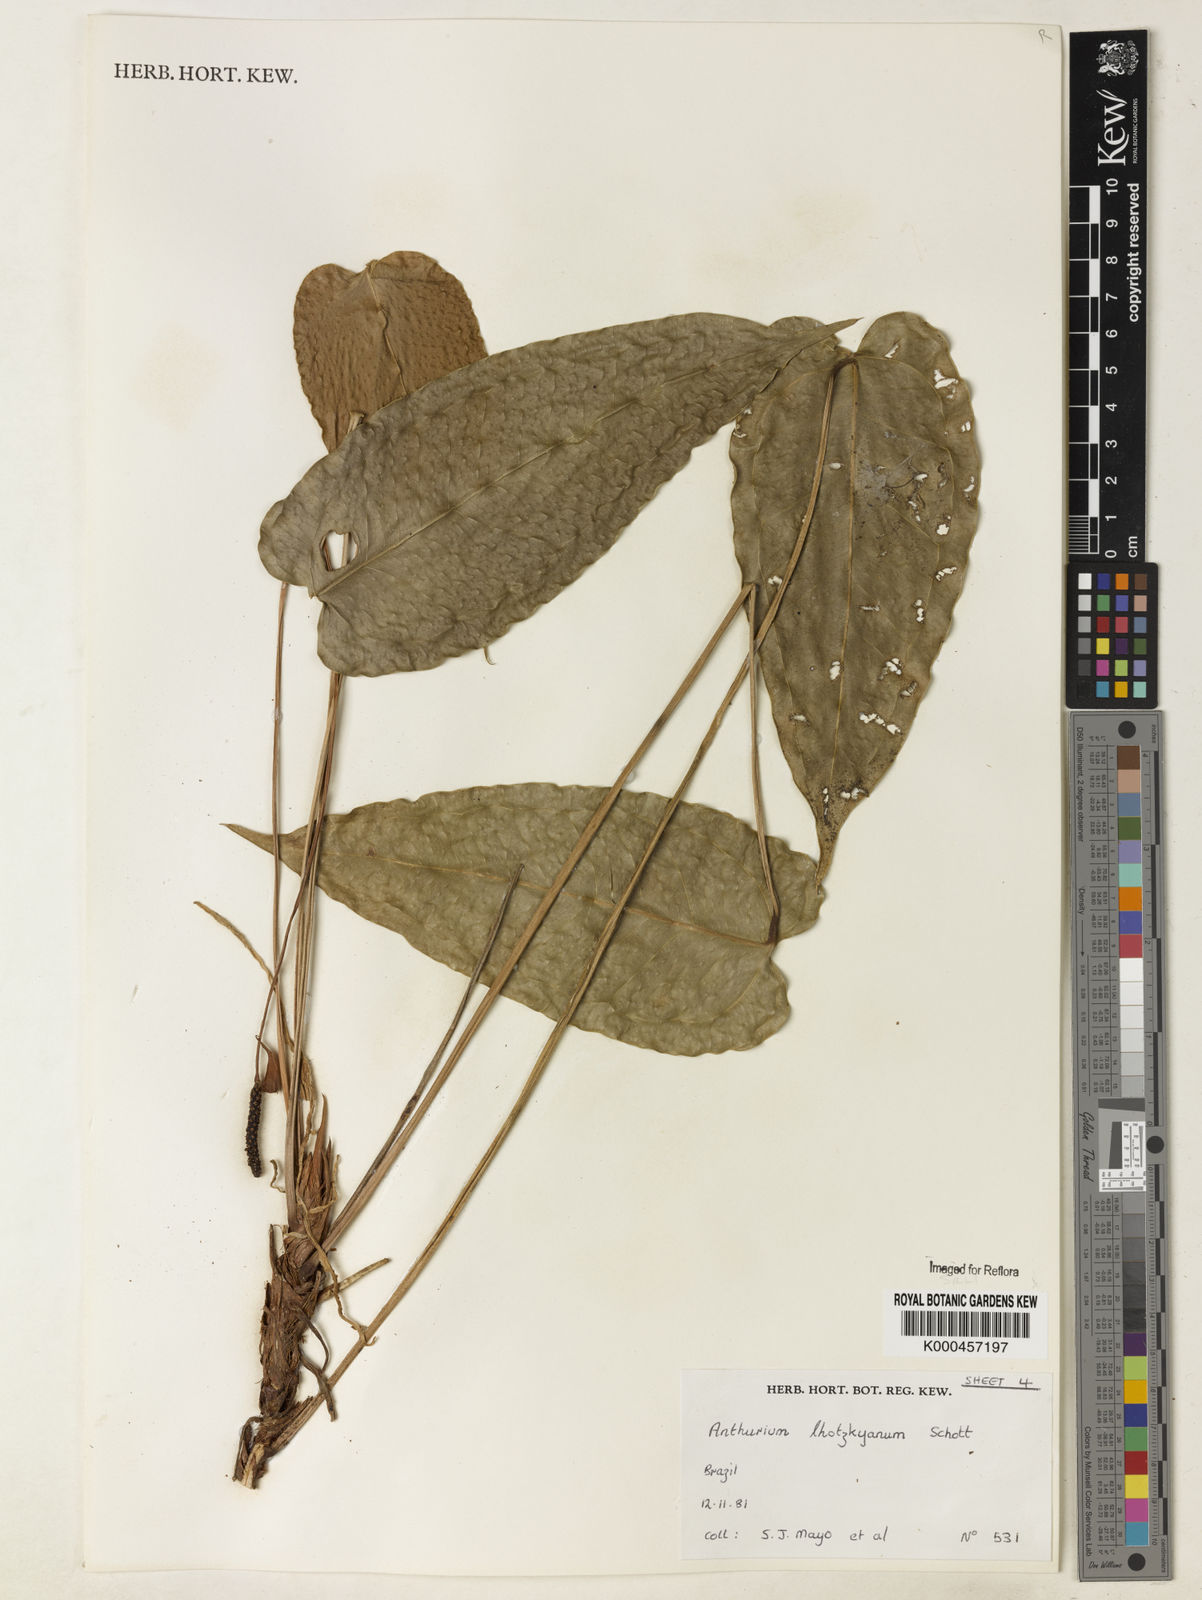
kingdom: Plantae
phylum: Tracheophyta
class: Liliopsida
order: Alismatales
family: Araceae
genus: Anthurium
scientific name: Anthurium augustinum
